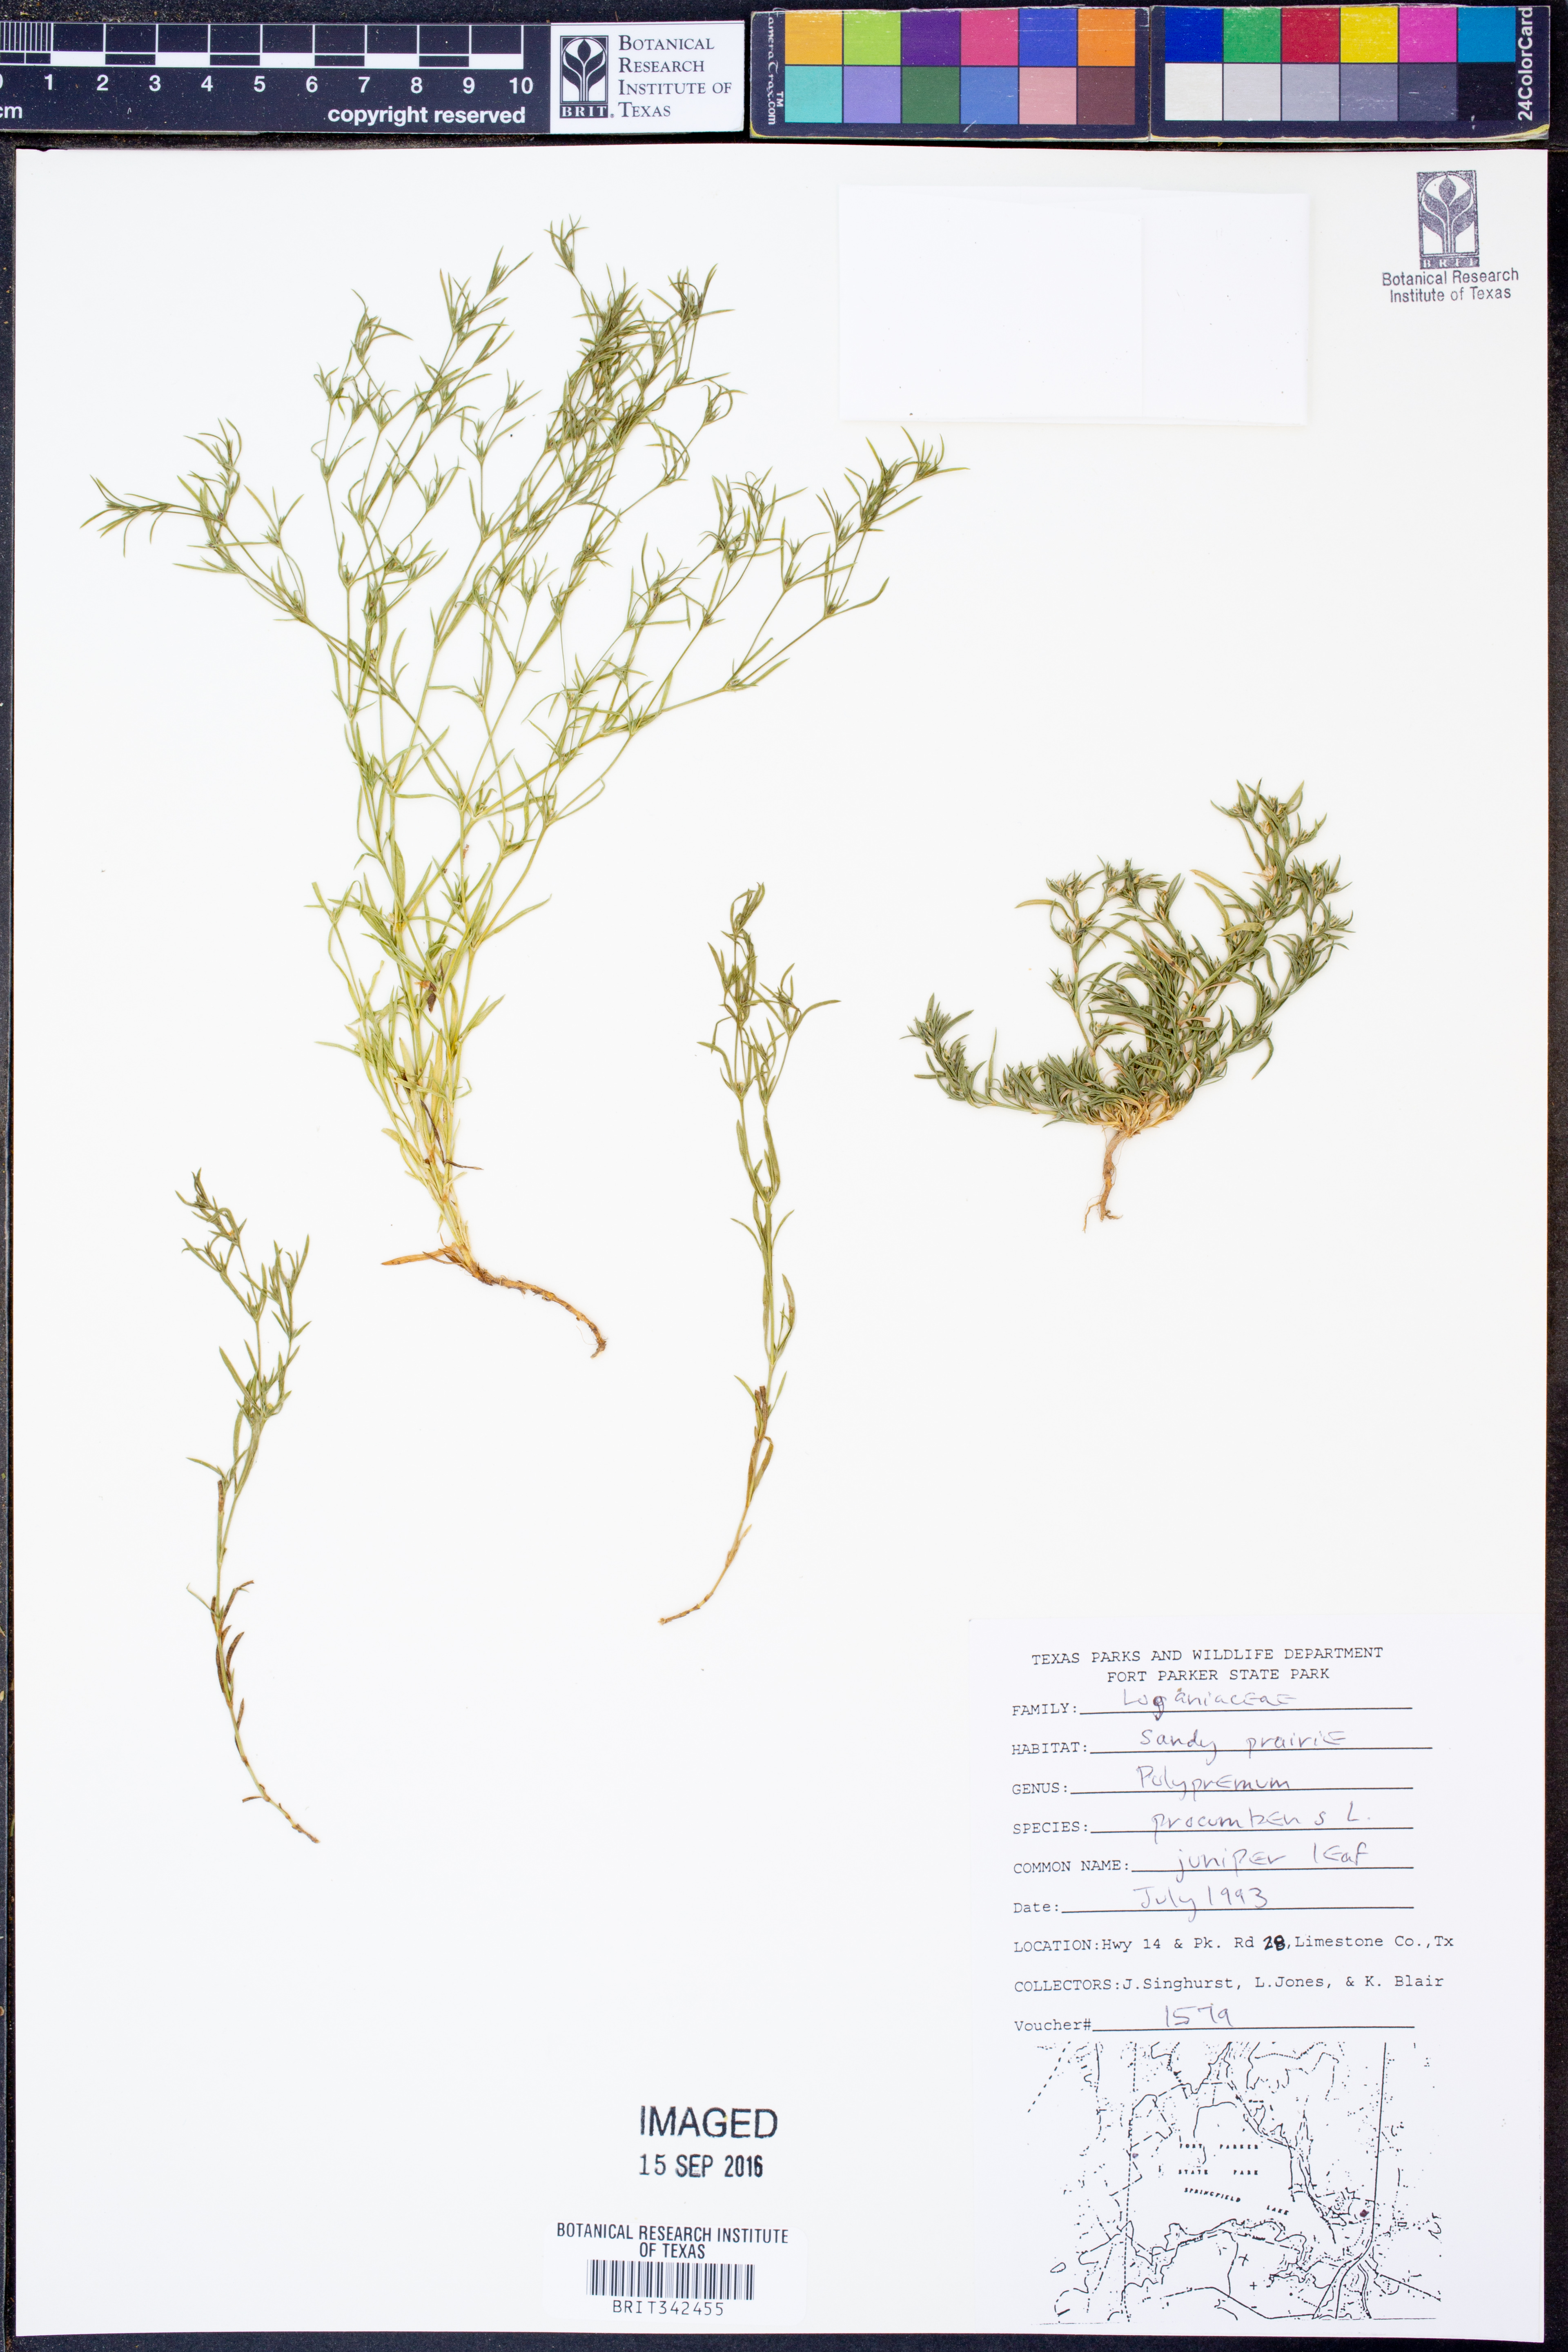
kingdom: Plantae
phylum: Tracheophyta
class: Magnoliopsida
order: Lamiales
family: Tetrachondraceae
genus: Polypremum
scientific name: Polypremum procumbens
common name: Juniper-leaf
